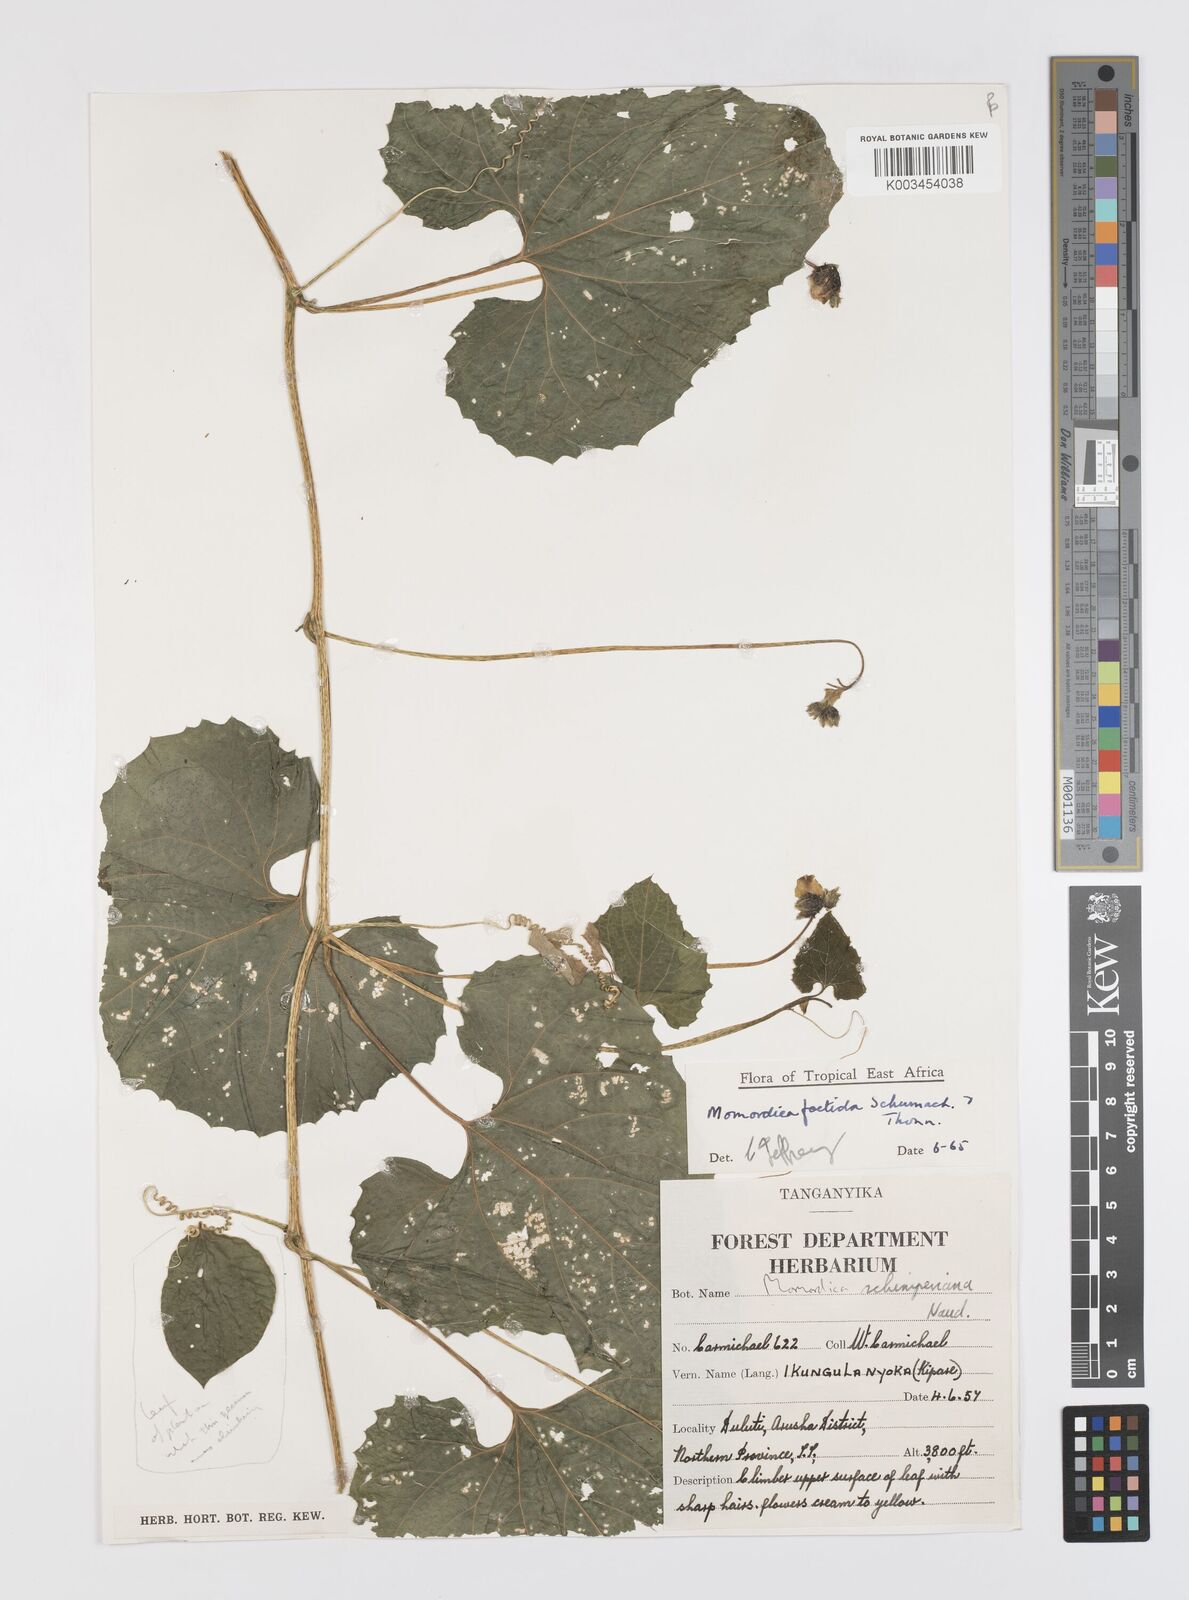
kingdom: Plantae
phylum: Tracheophyta
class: Magnoliopsida
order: Cucurbitales
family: Cucurbitaceae
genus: Momordica
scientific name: Momordica foetida
